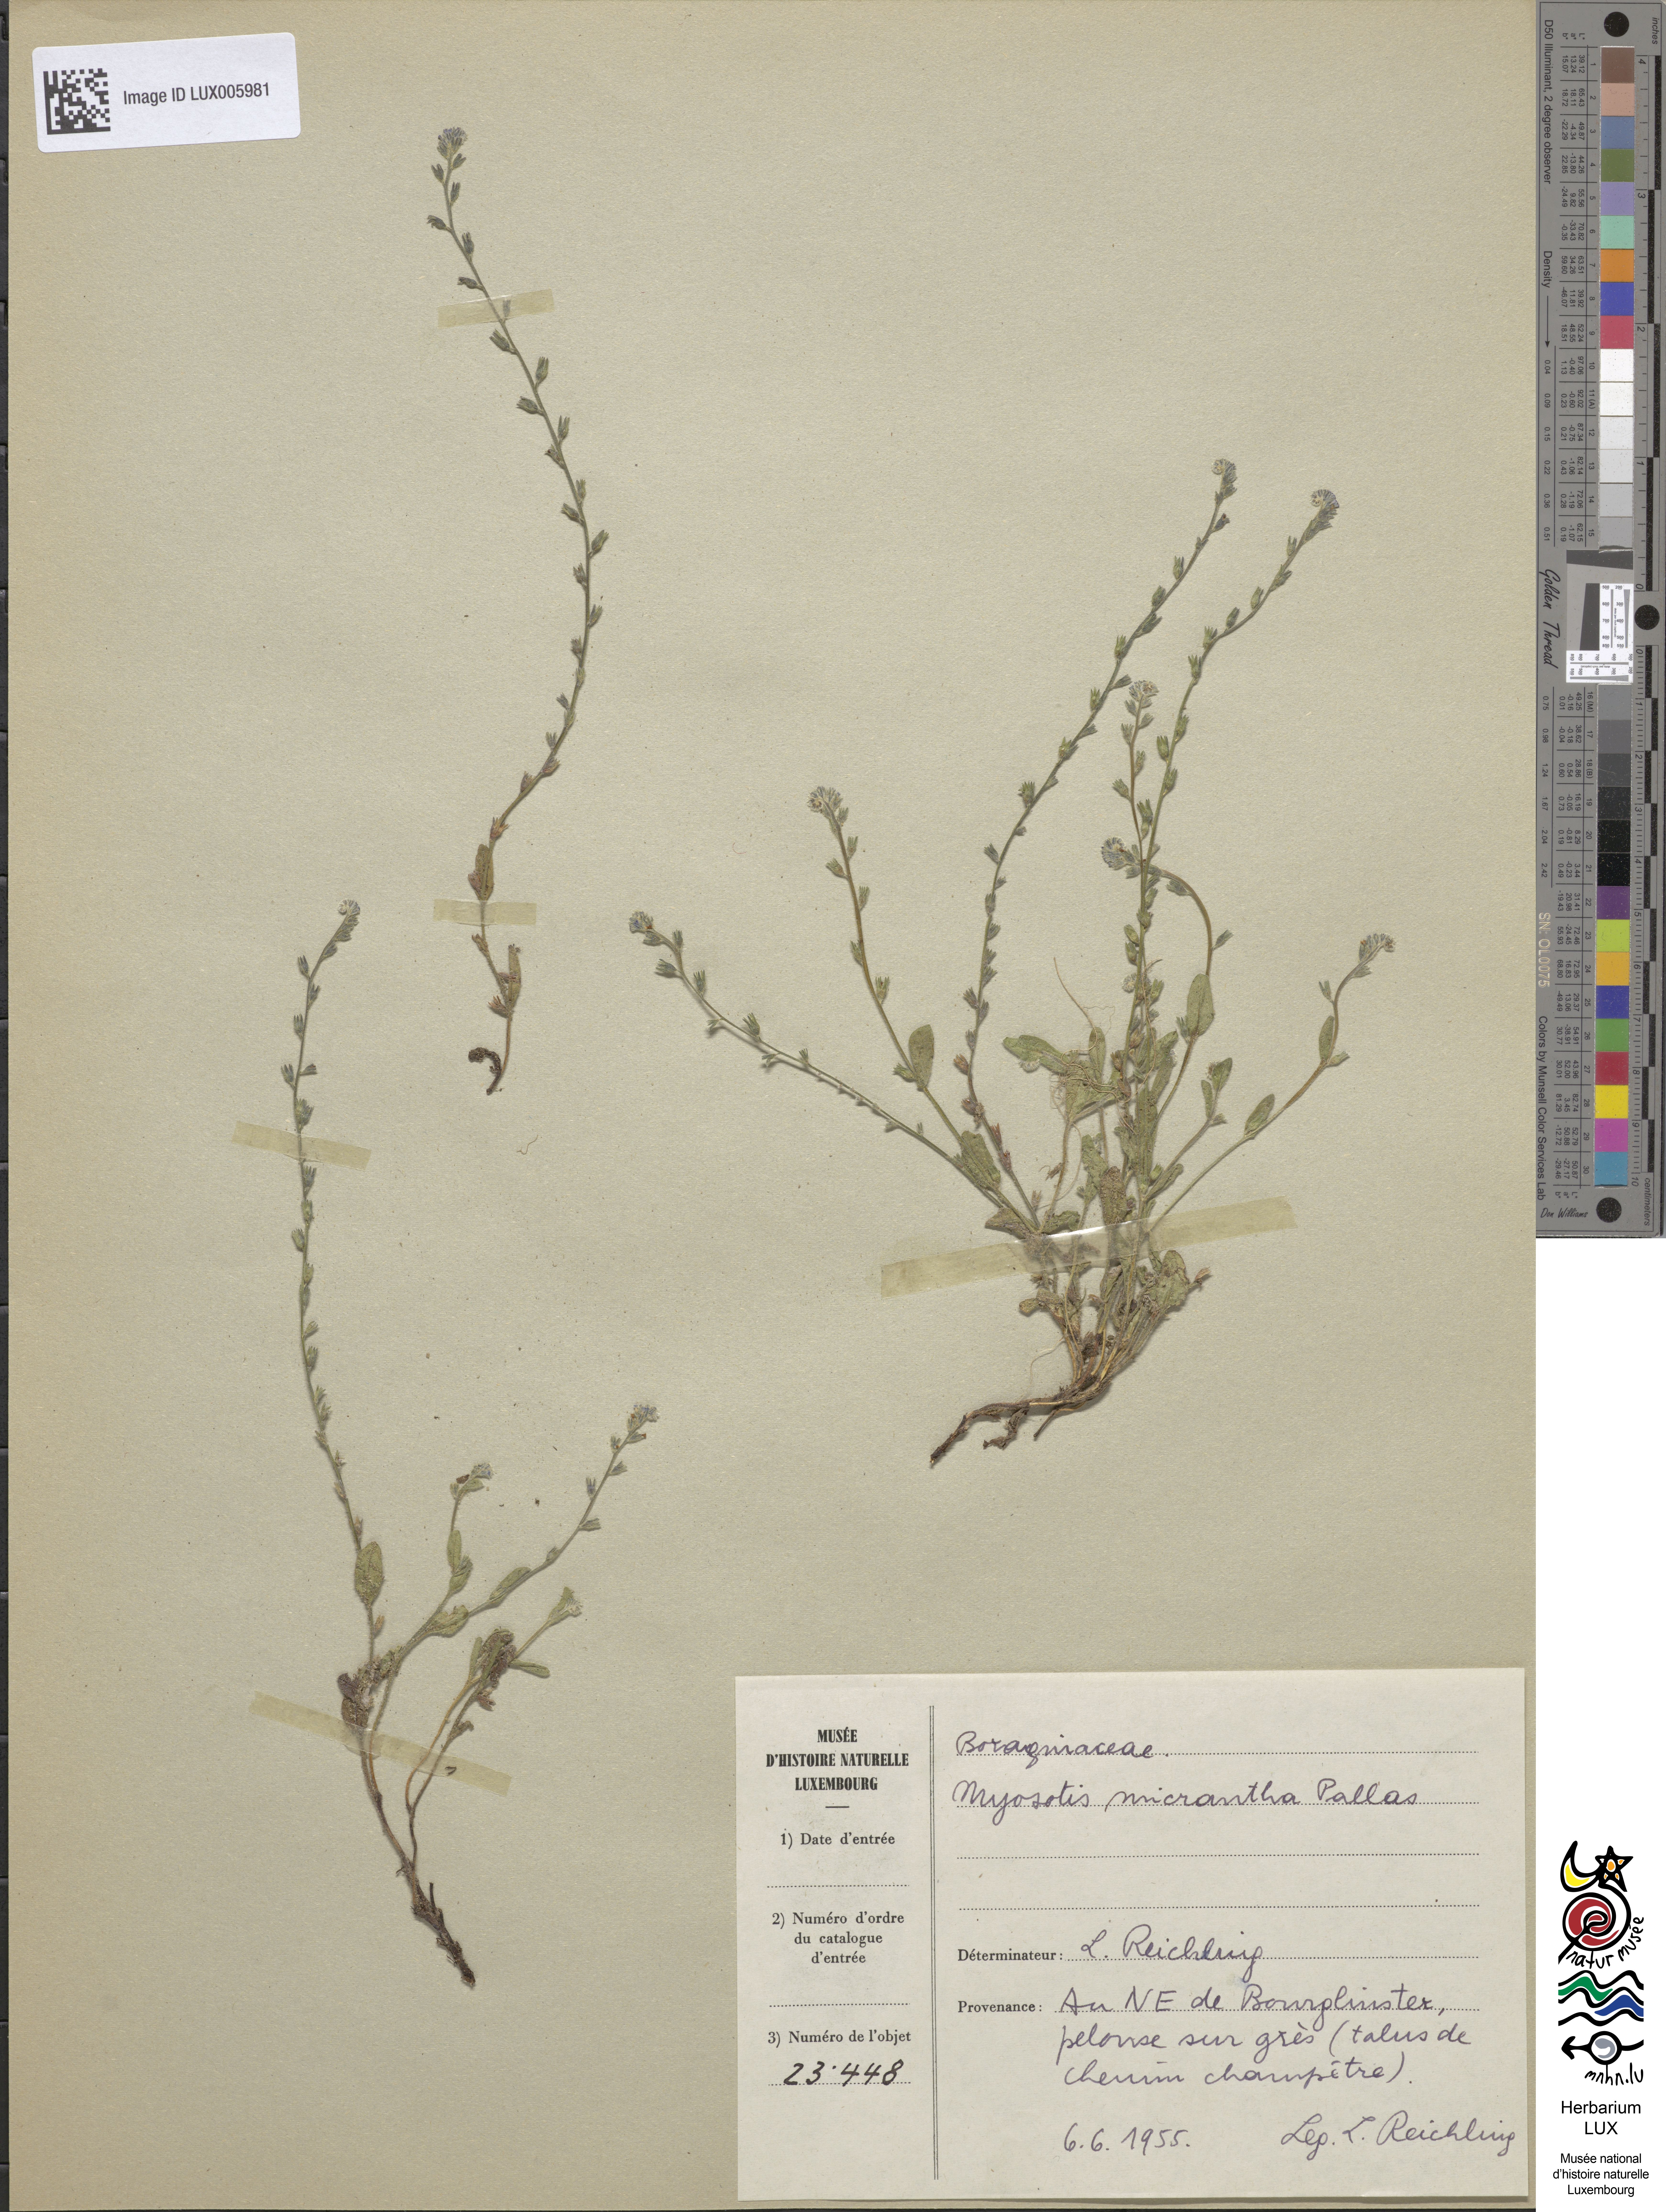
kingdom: Plantae
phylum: Tracheophyta
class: Magnoliopsida
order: Boraginales
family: Boraginaceae
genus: Myosotis
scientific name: Myosotis stricta
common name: Strict forget-me-not
